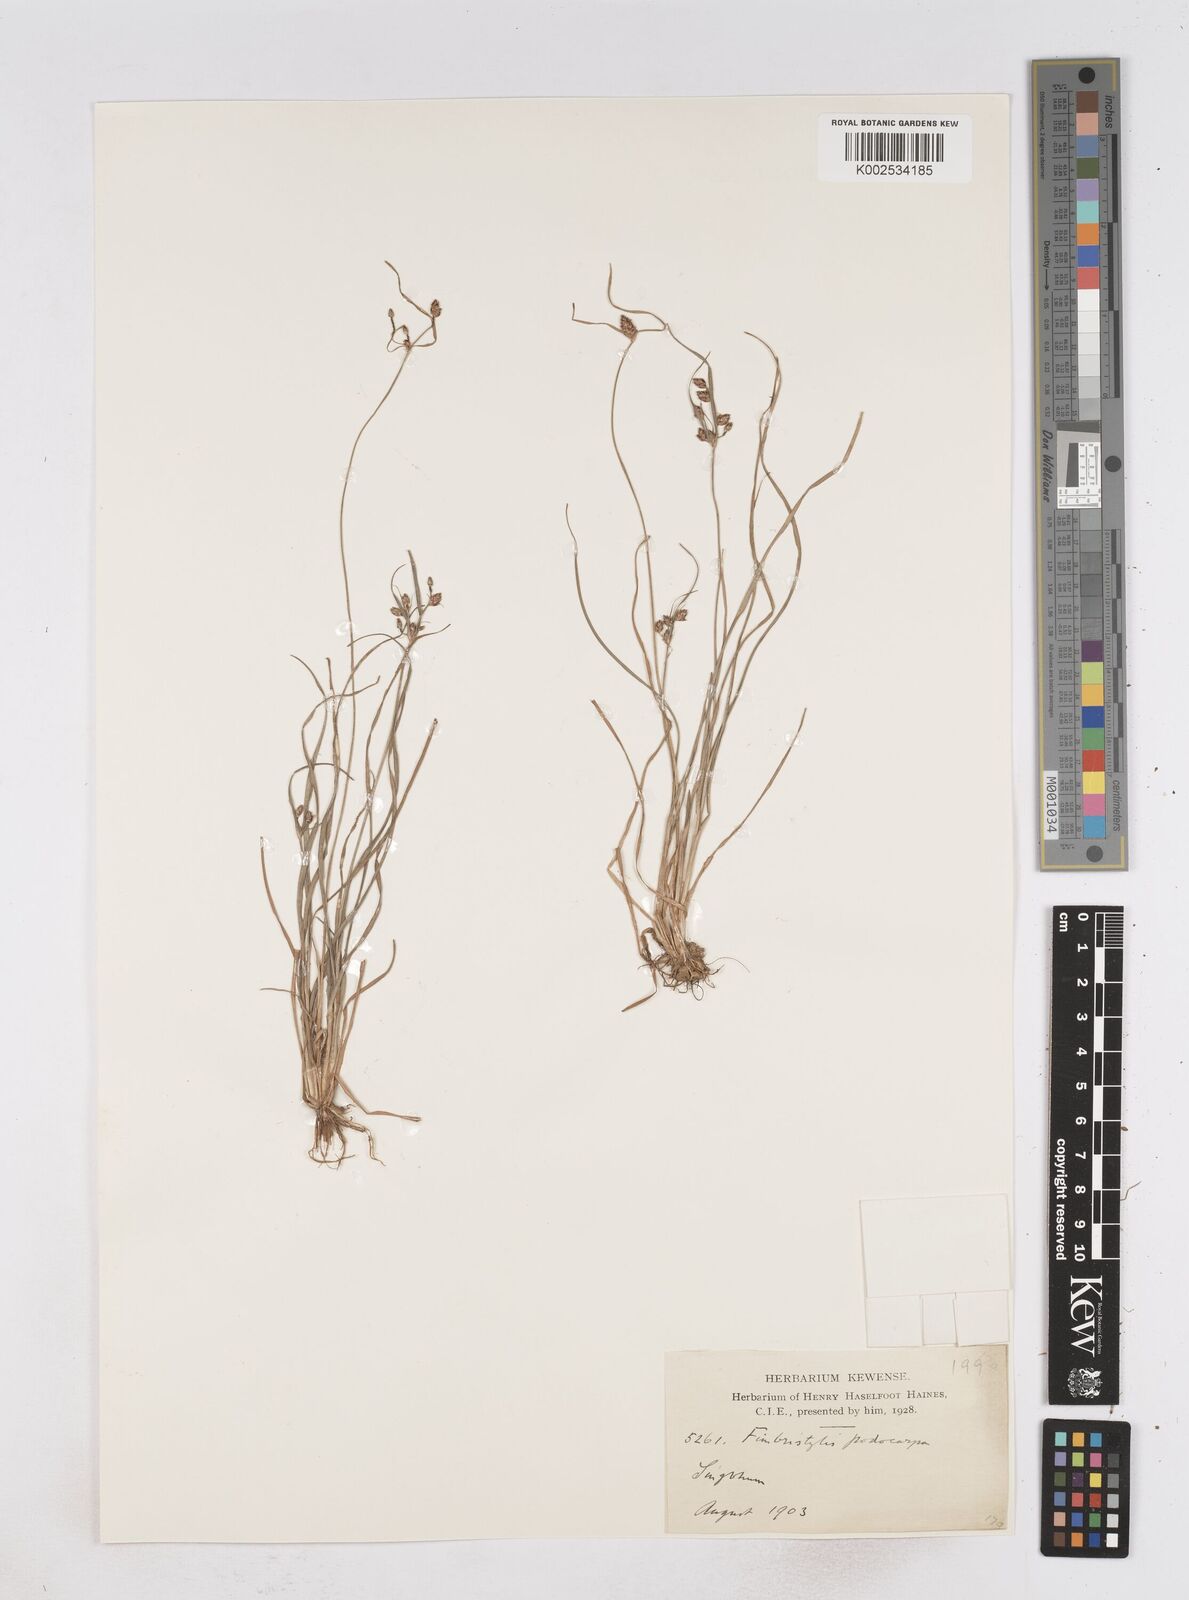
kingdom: Plantae
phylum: Tracheophyta
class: Liliopsida
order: Poales
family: Cyperaceae
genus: Fimbristylis
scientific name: Fimbristylis dichotoma
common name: Forked fimbry
